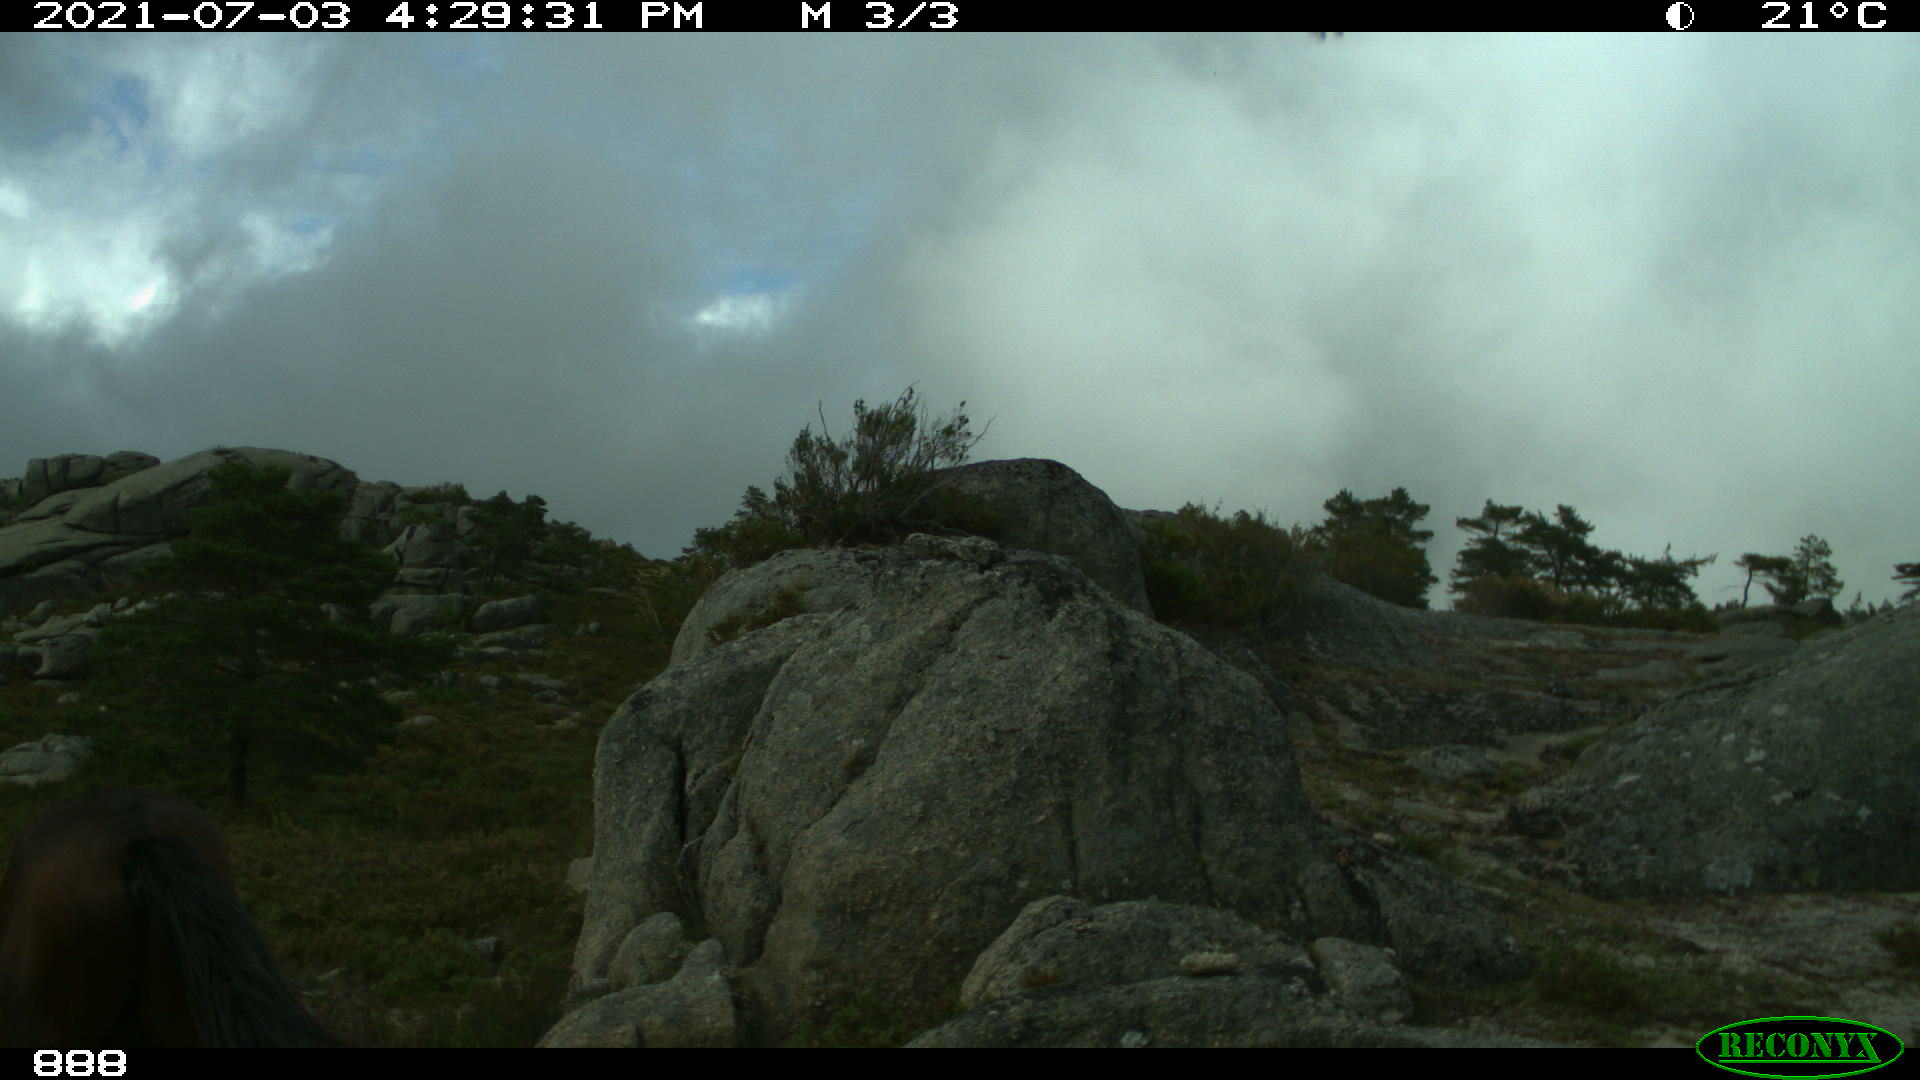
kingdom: Animalia
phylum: Chordata
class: Mammalia
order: Perissodactyla
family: Equidae
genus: Equus
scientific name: Equus caballus
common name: Horse
